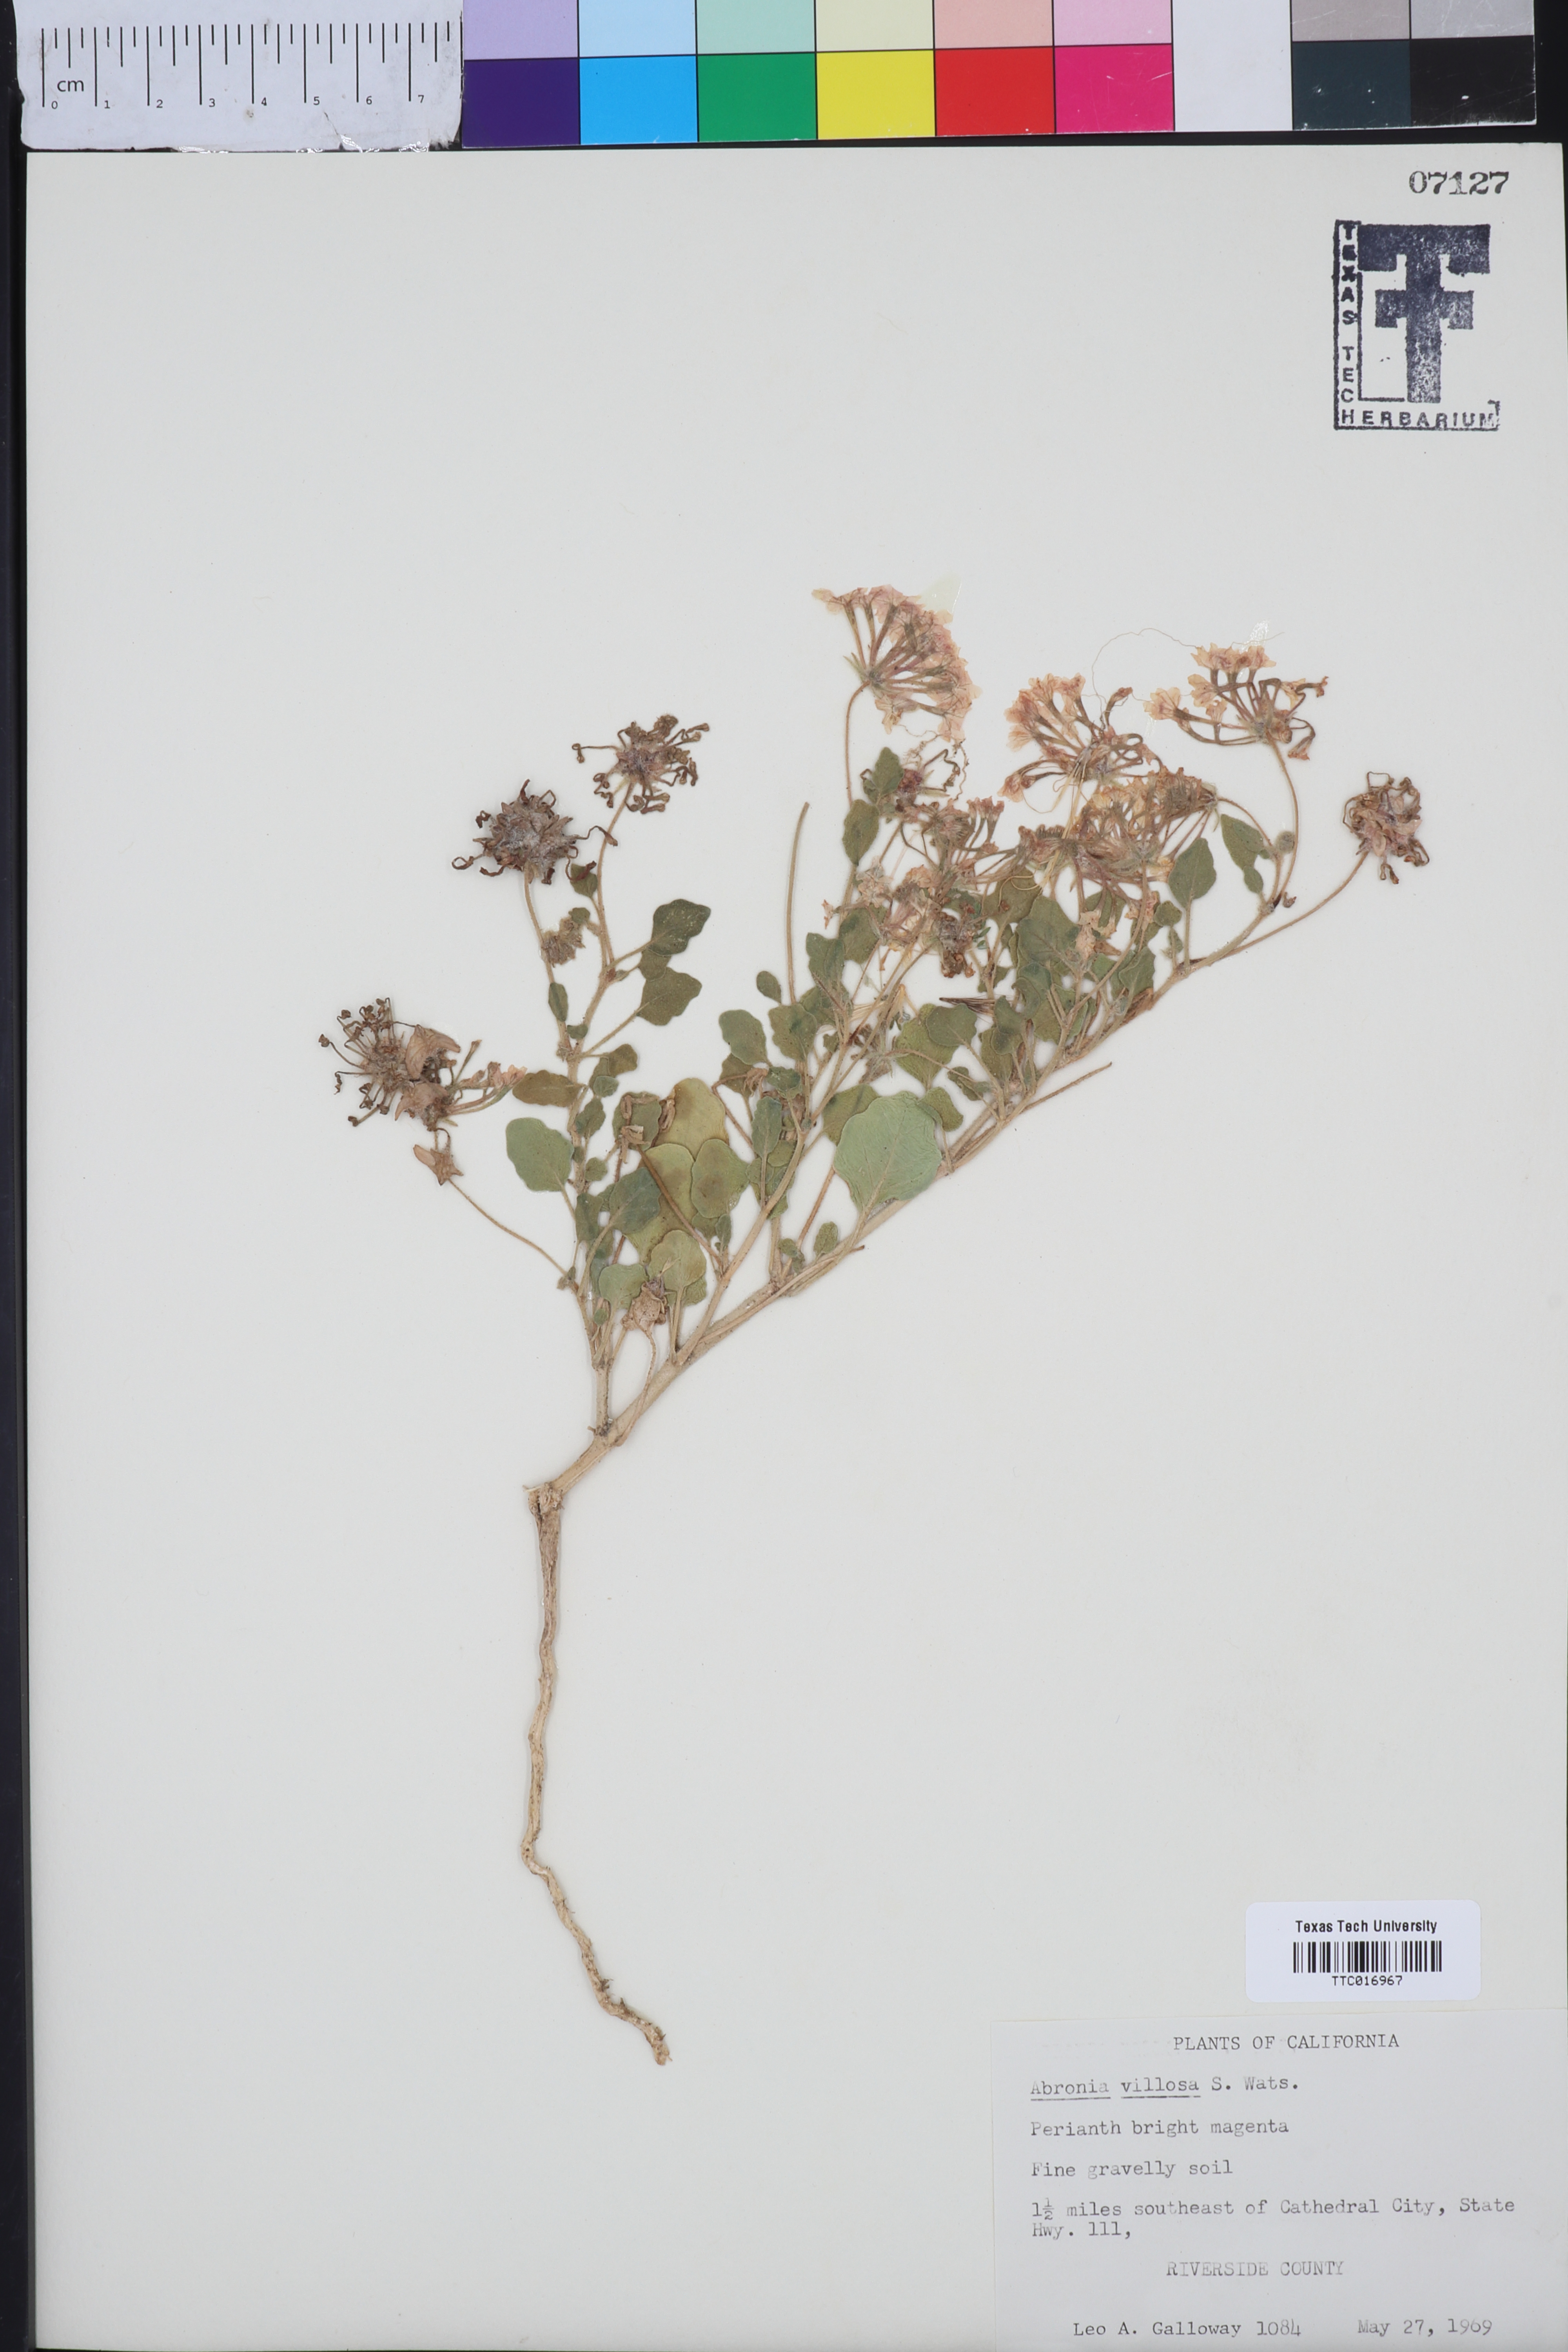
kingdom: Plantae
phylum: Tracheophyta
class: Magnoliopsida
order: Caryophyllales
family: Nyctaginaceae
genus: Abronia
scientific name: Abronia villosa
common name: Desert sand-verbena
